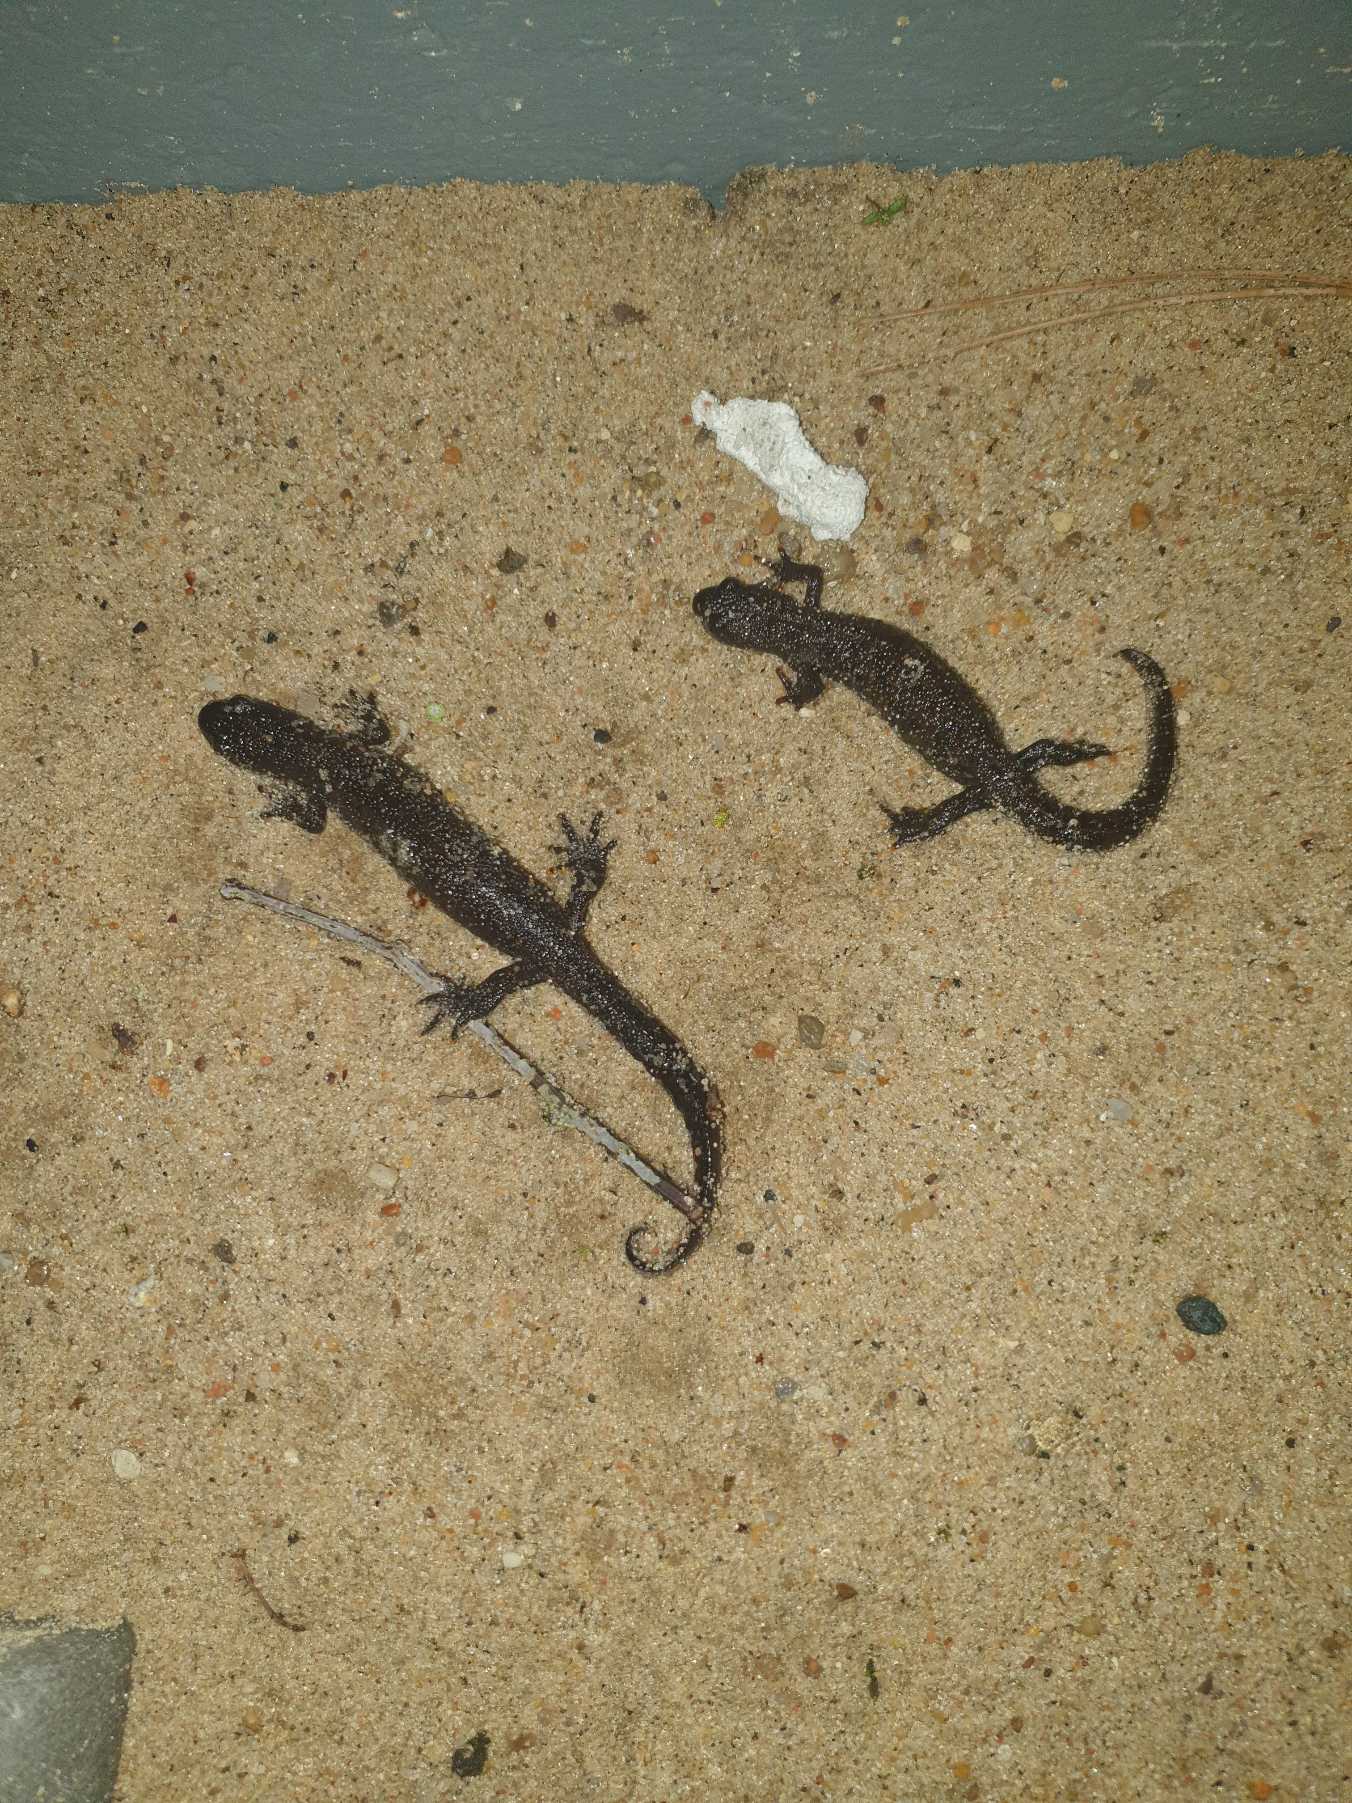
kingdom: Animalia
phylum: Chordata
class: Amphibia
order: Caudata
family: Salamandridae
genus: Triturus
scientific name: Triturus cristatus
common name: Stor vandsalamander
